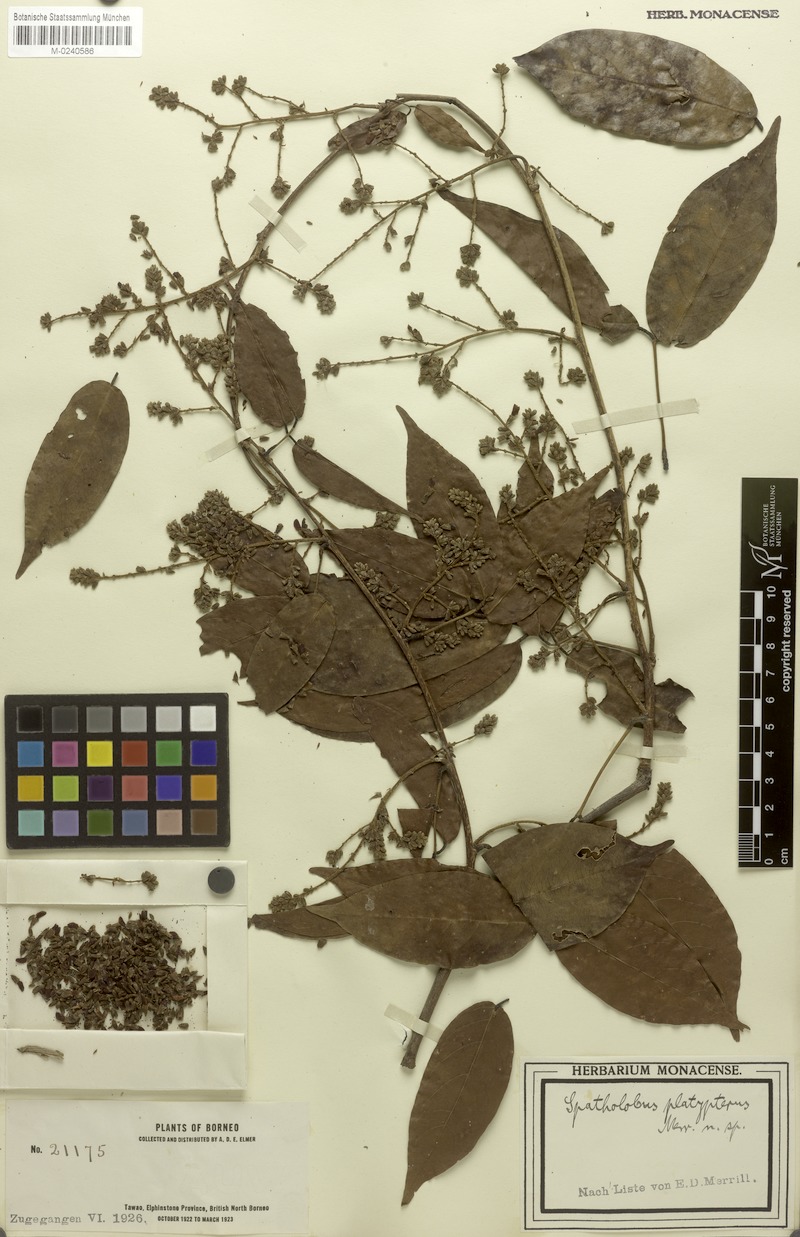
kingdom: Plantae
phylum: Tracheophyta
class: Magnoliopsida
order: Fabales
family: Fabaceae
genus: Spatholobus
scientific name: Spatholobus macropterus
